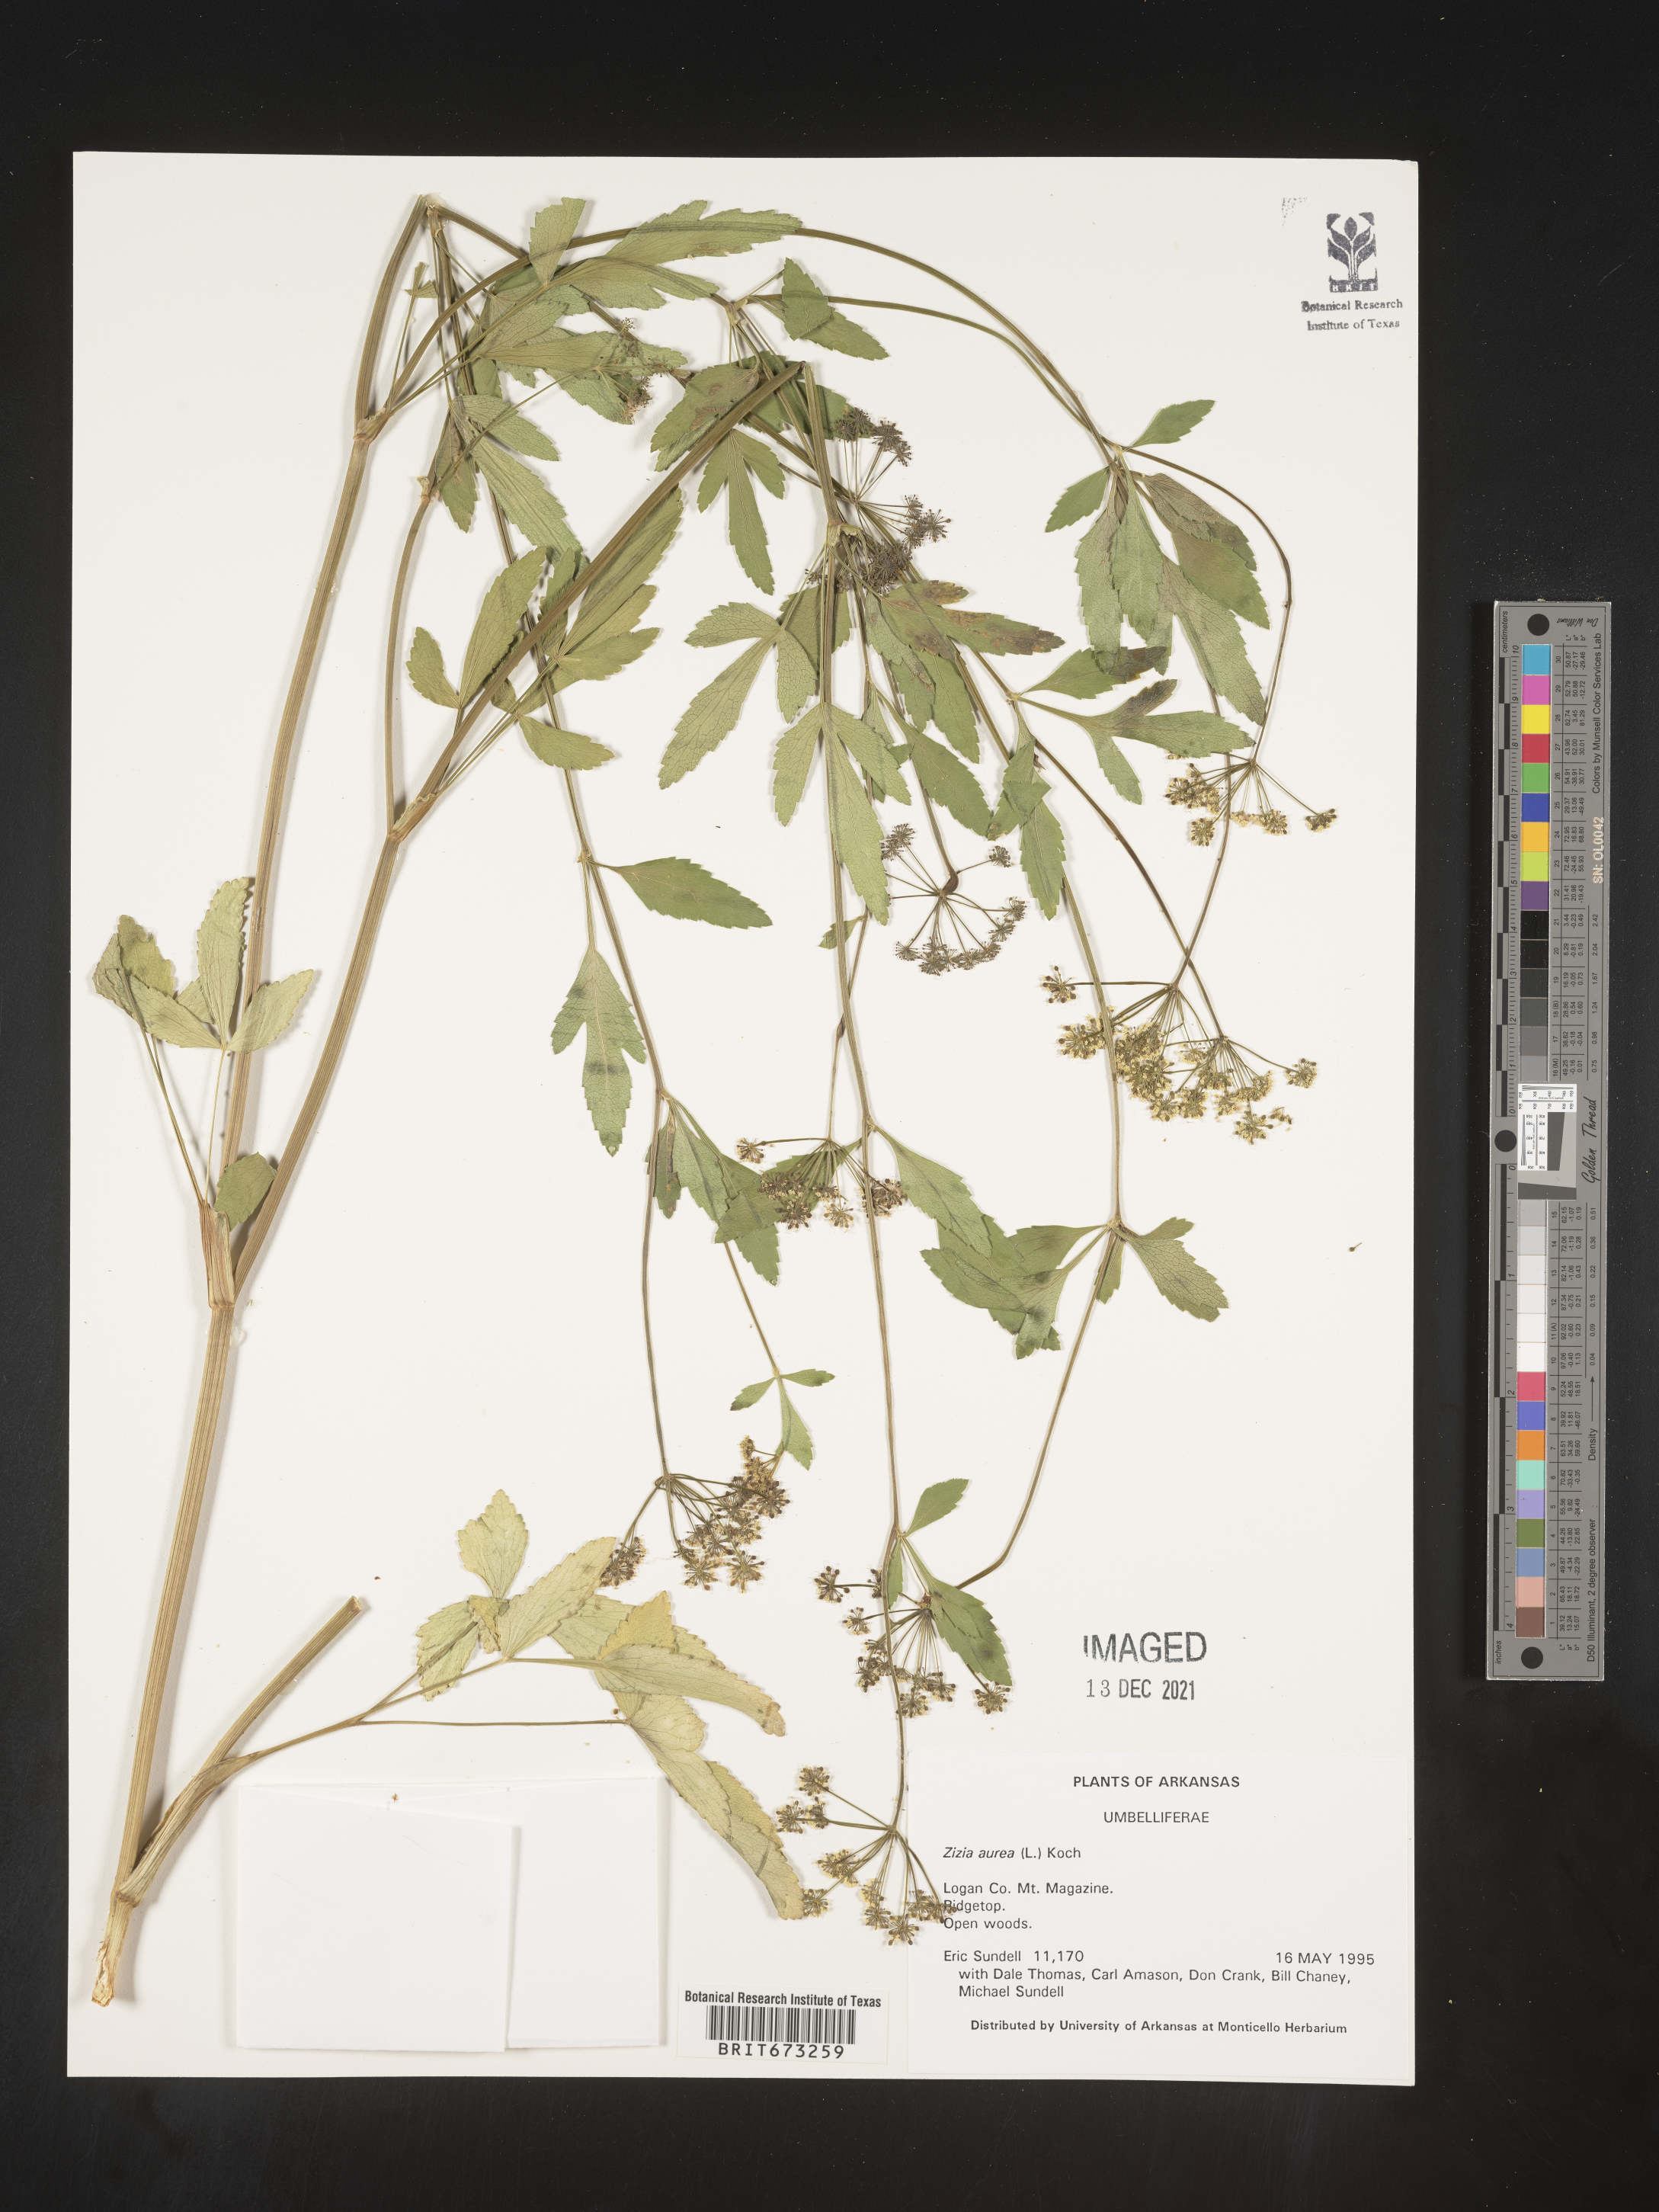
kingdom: Plantae
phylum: Tracheophyta
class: Magnoliopsida
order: Apiales
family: Apiaceae
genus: Zizia
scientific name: Zizia aurea
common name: Golden alexanders
